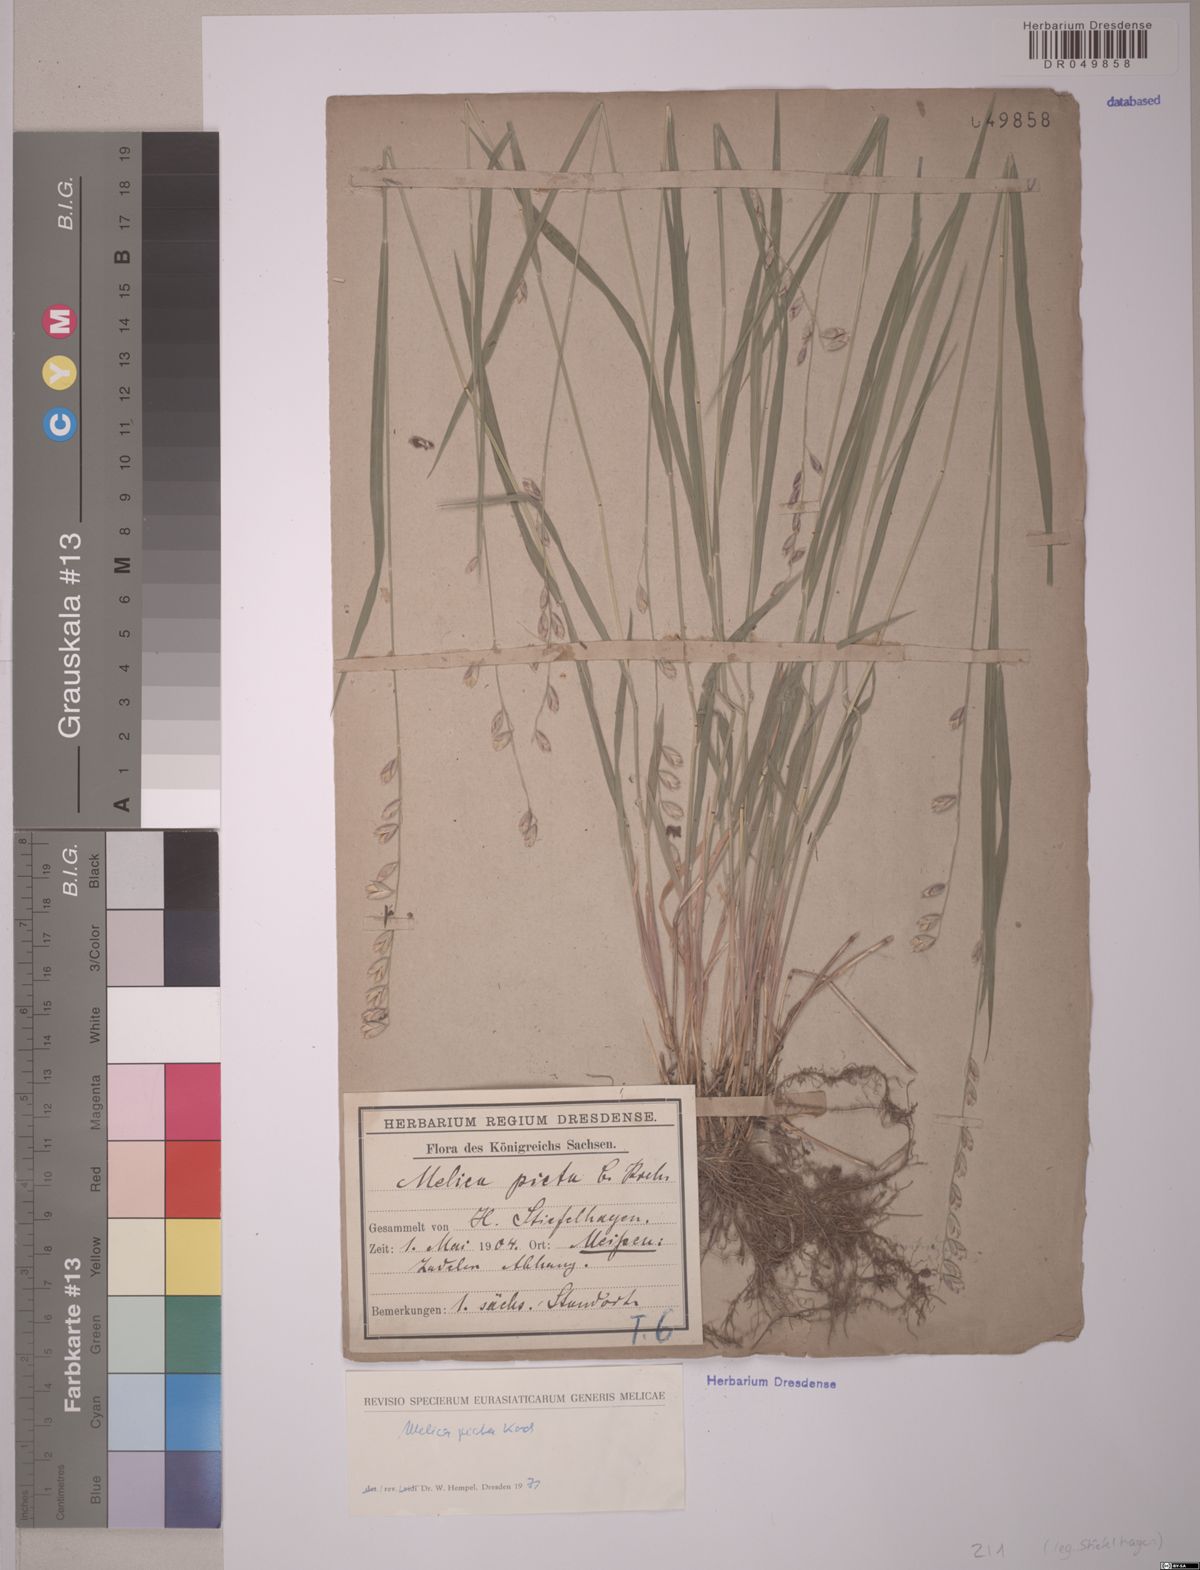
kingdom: Plantae
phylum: Tracheophyta
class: Liliopsida
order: Poales
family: Poaceae
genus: Melica
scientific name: Melica picta
